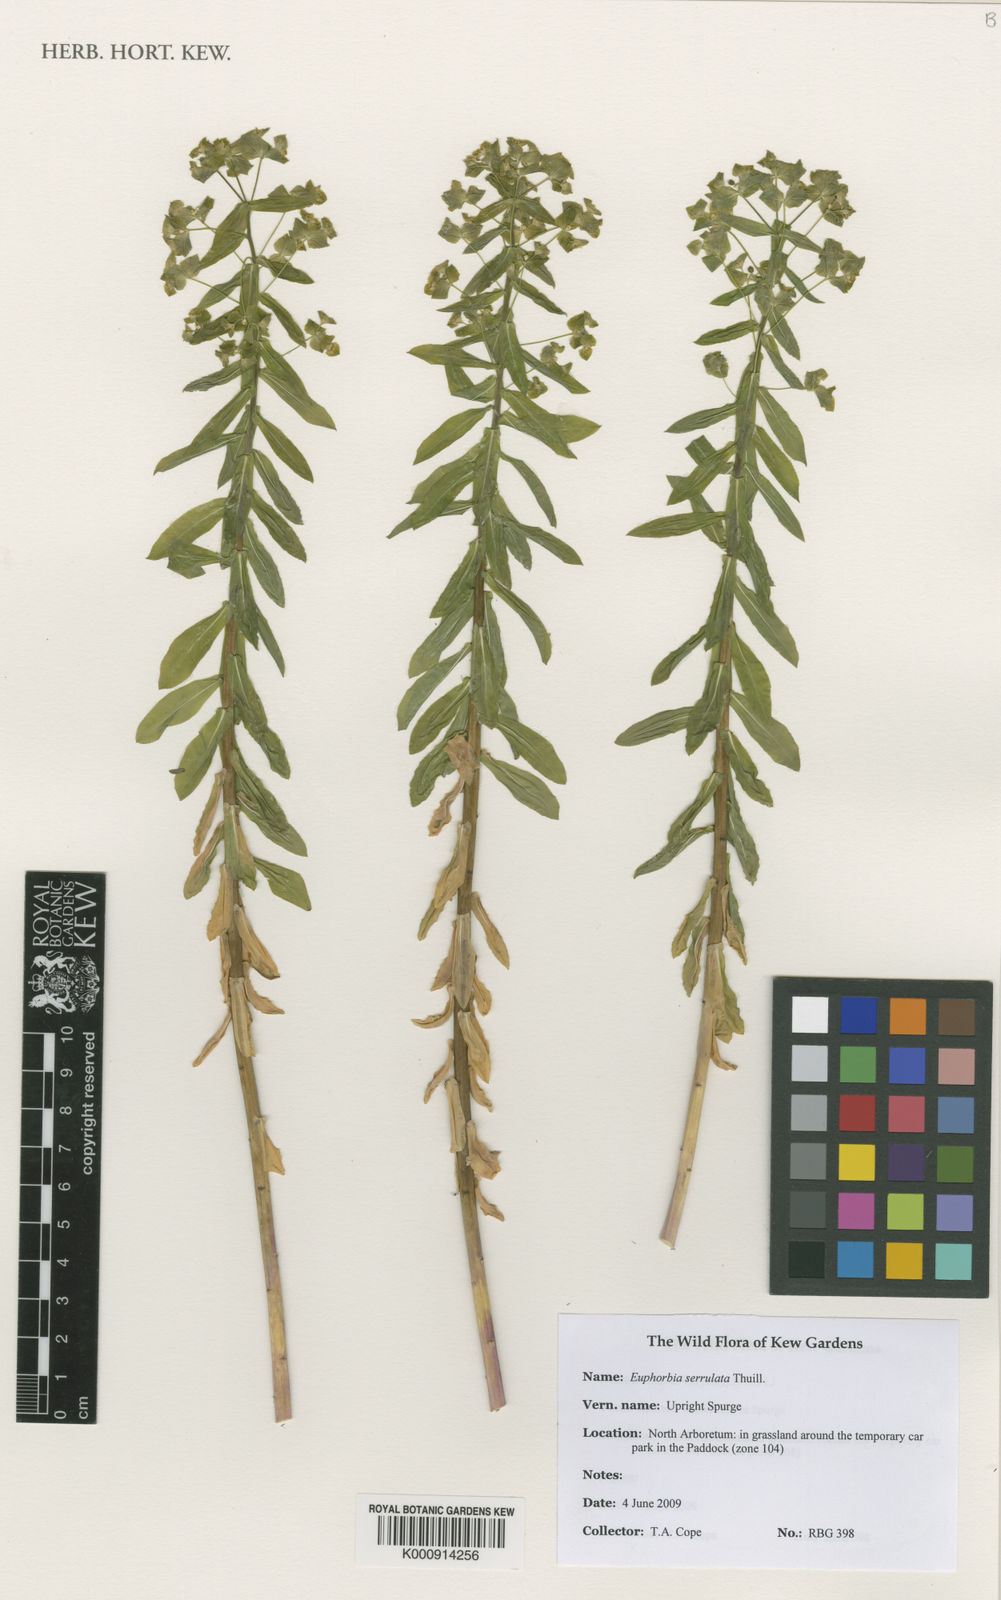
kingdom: Plantae
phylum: Tracheophyta
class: Magnoliopsida
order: Malpighiales
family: Euphorbiaceae
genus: Euphorbia
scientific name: Euphorbia stricta
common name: Upright spurge
